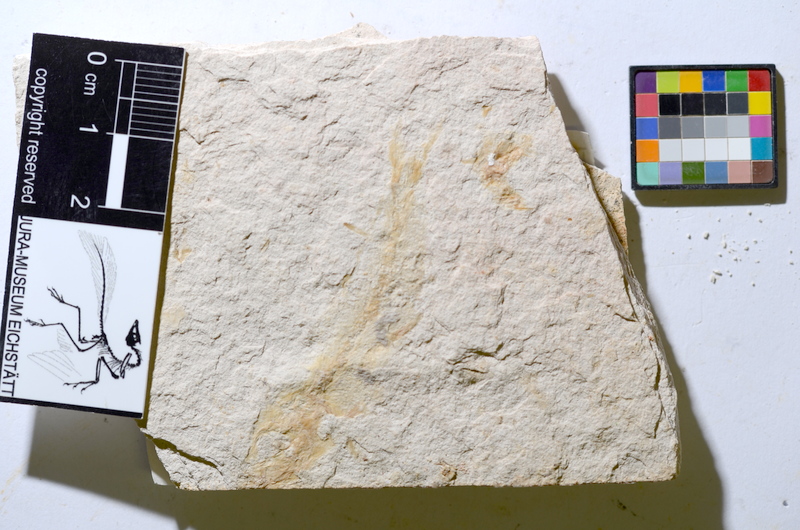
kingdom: Animalia
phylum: Chordata
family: Ascalaboidae
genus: Tharsis
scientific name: Tharsis
